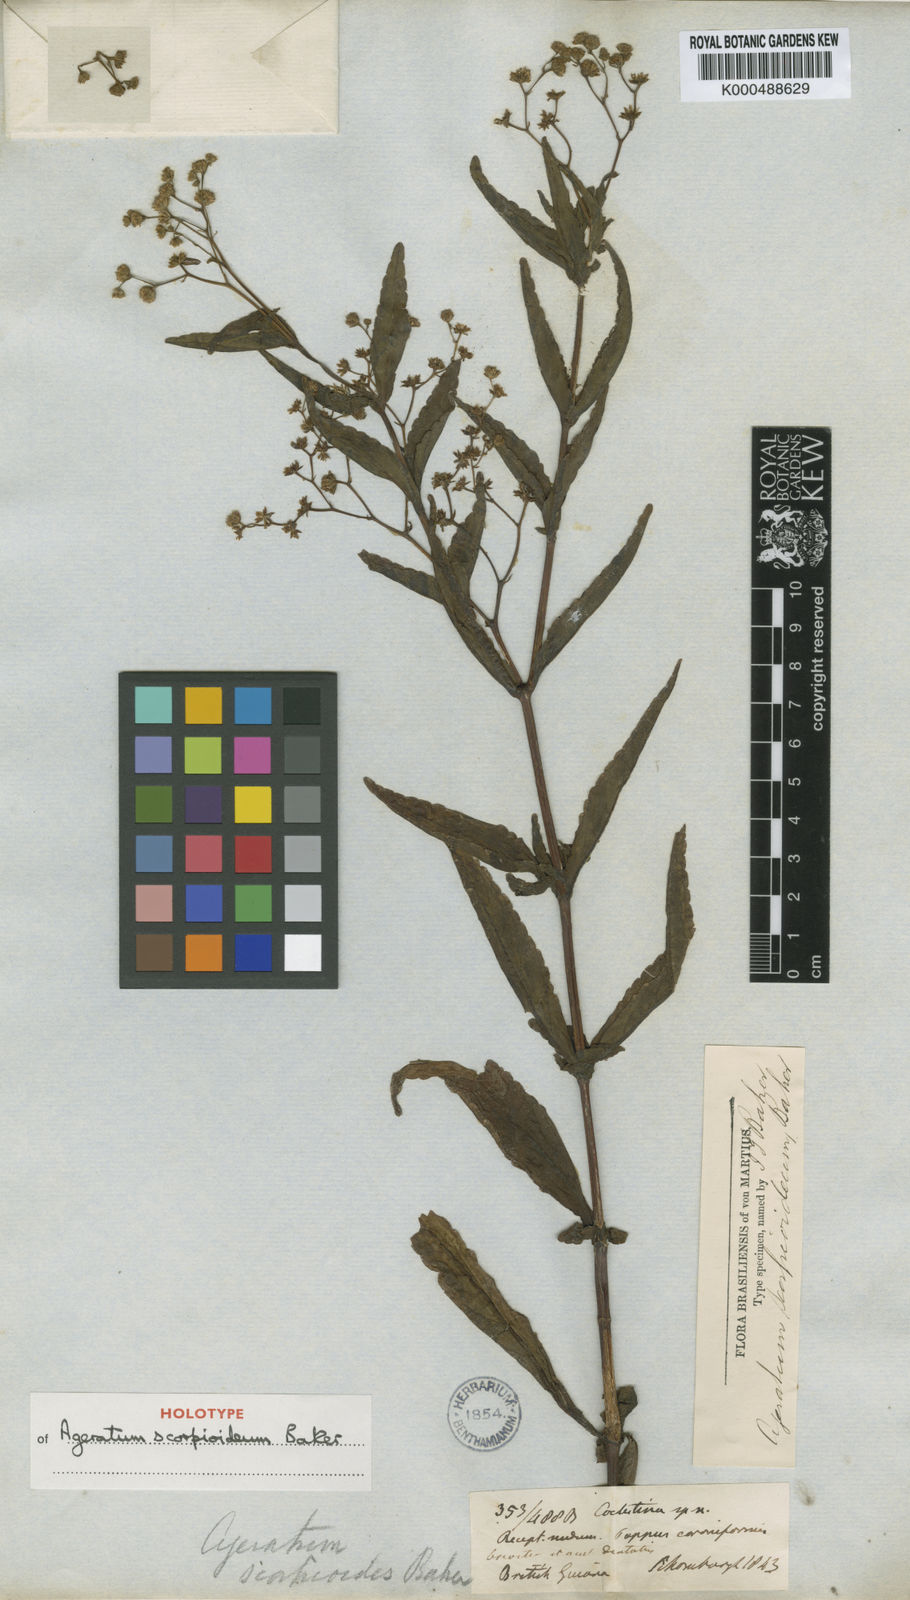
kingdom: Plantae
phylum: Tracheophyta
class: Magnoliopsida
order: Asterales
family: Asteraceae
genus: Ageratum
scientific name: Ageratum scorpioideum
